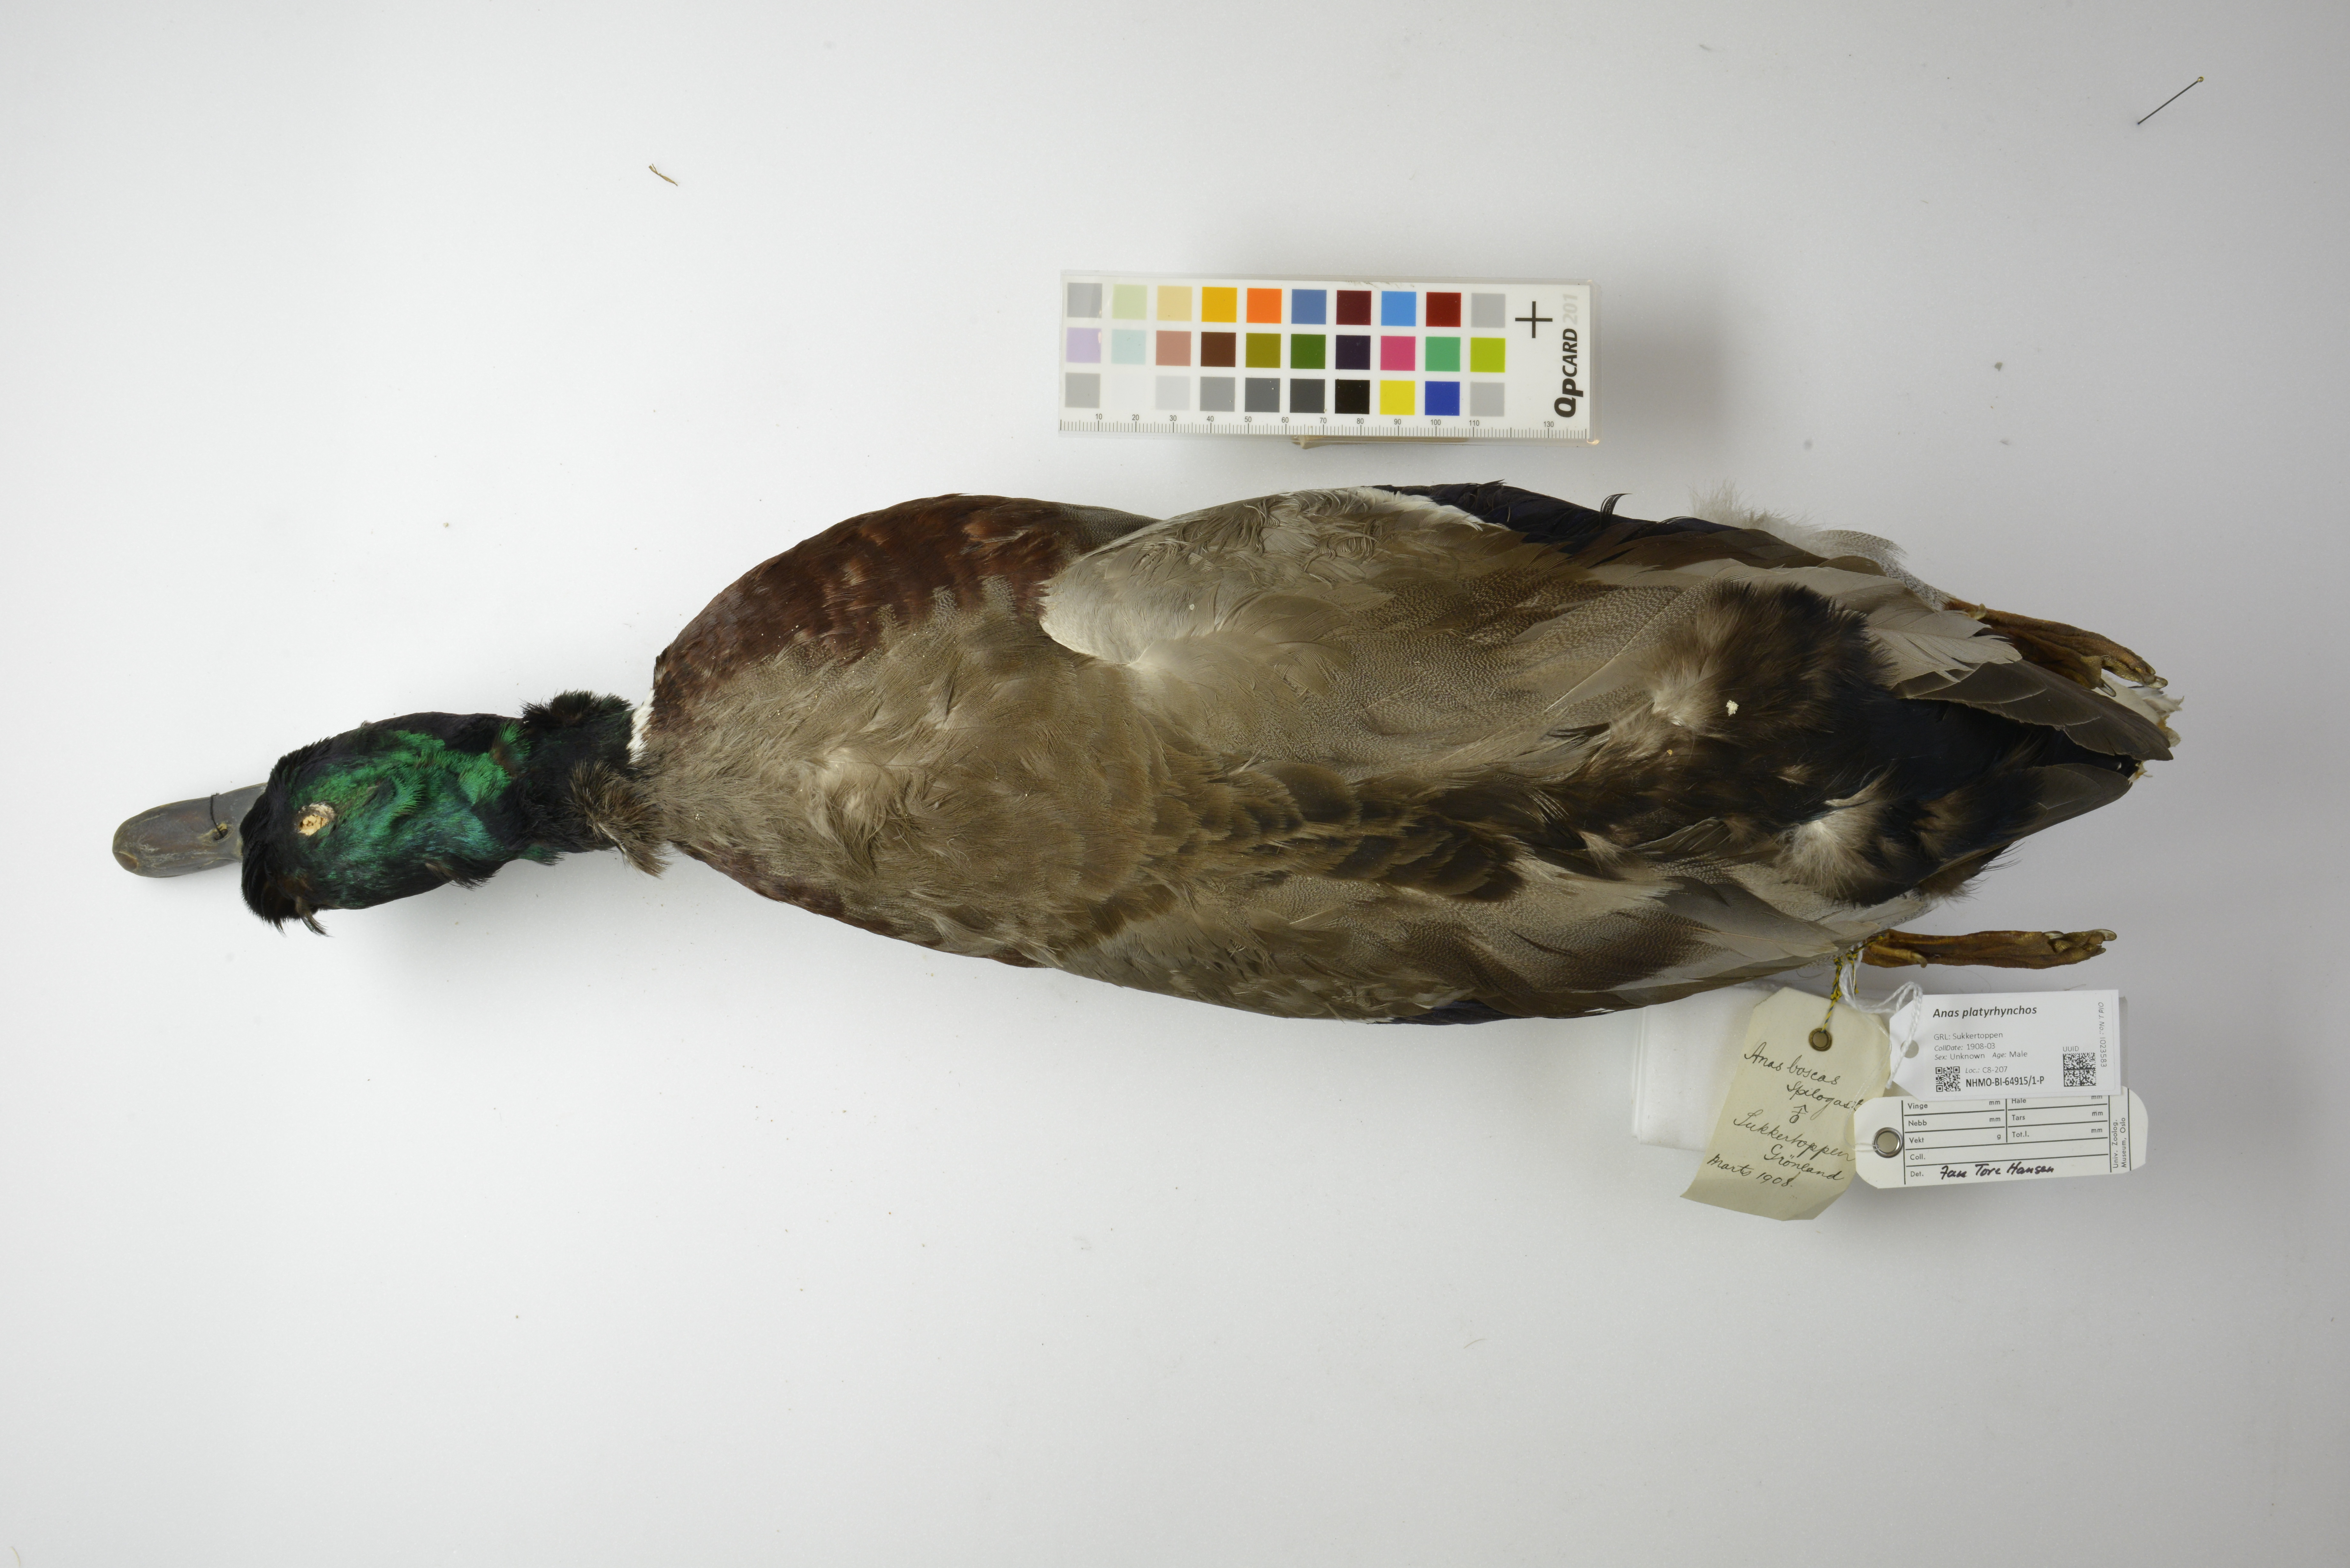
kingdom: Animalia
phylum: Chordata
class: Aves
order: Anseriformes
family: Anatidae
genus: Anas
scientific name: Anas platyrhynchos
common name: Mallard
